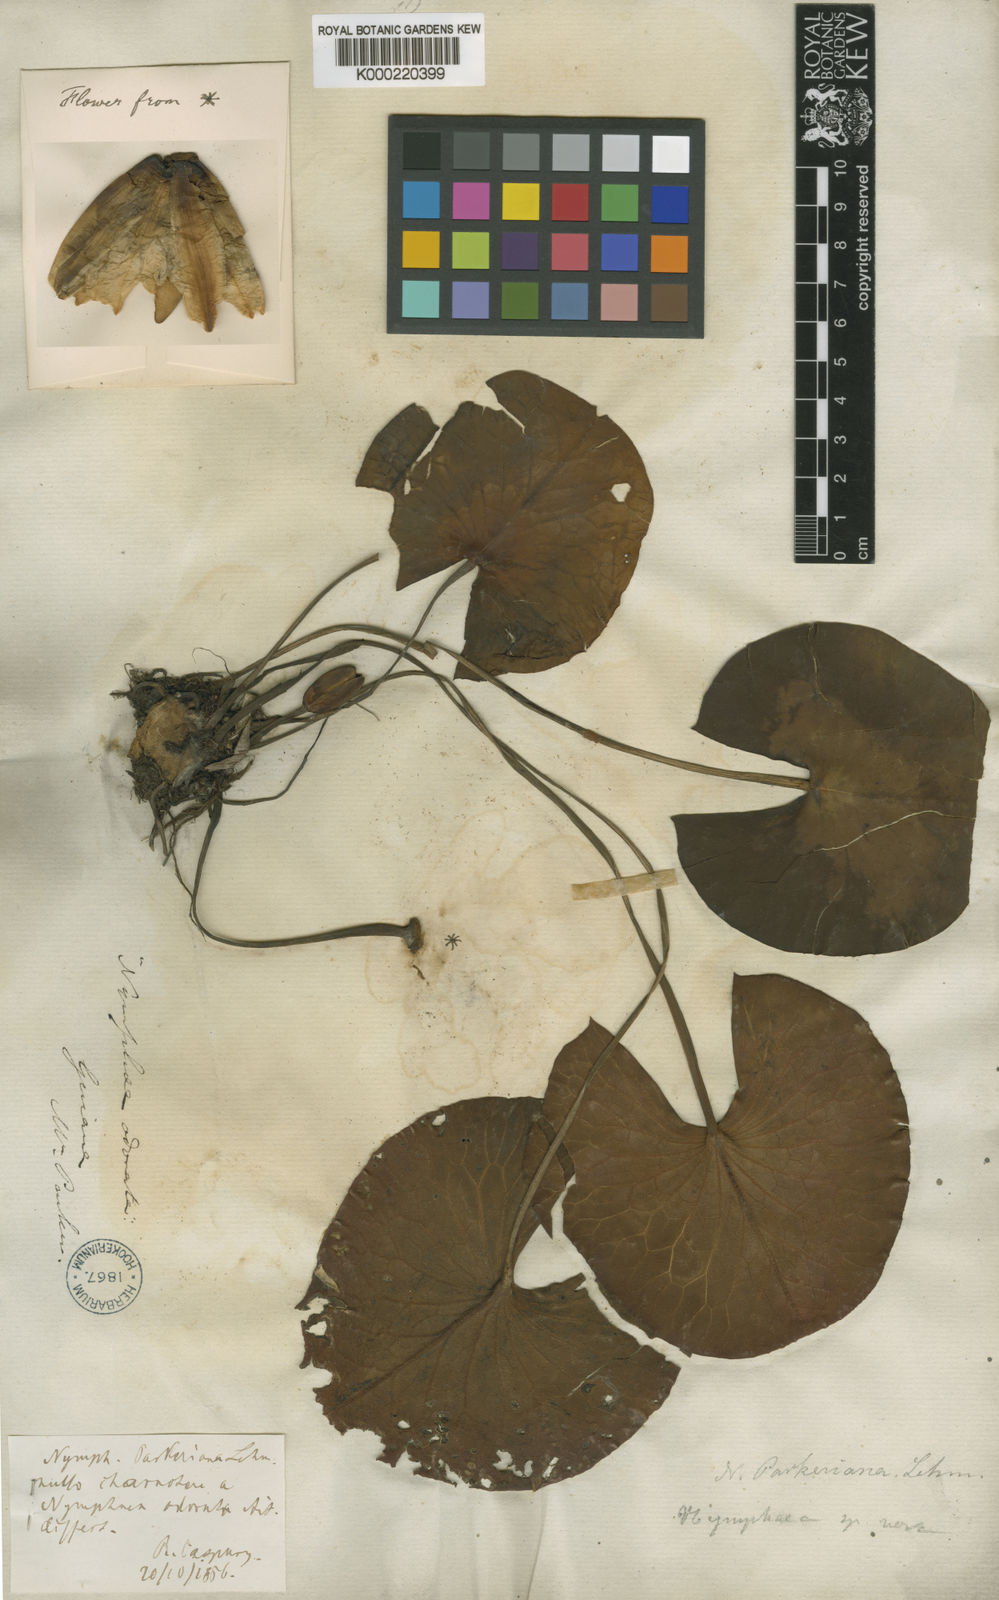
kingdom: Plantae
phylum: Tracheophyta
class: Magnoliopsida
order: Nymphaeales
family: Nymphaeaceae
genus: Nymphaea
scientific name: Nymphaea odorata
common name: Fragrant water-lily
